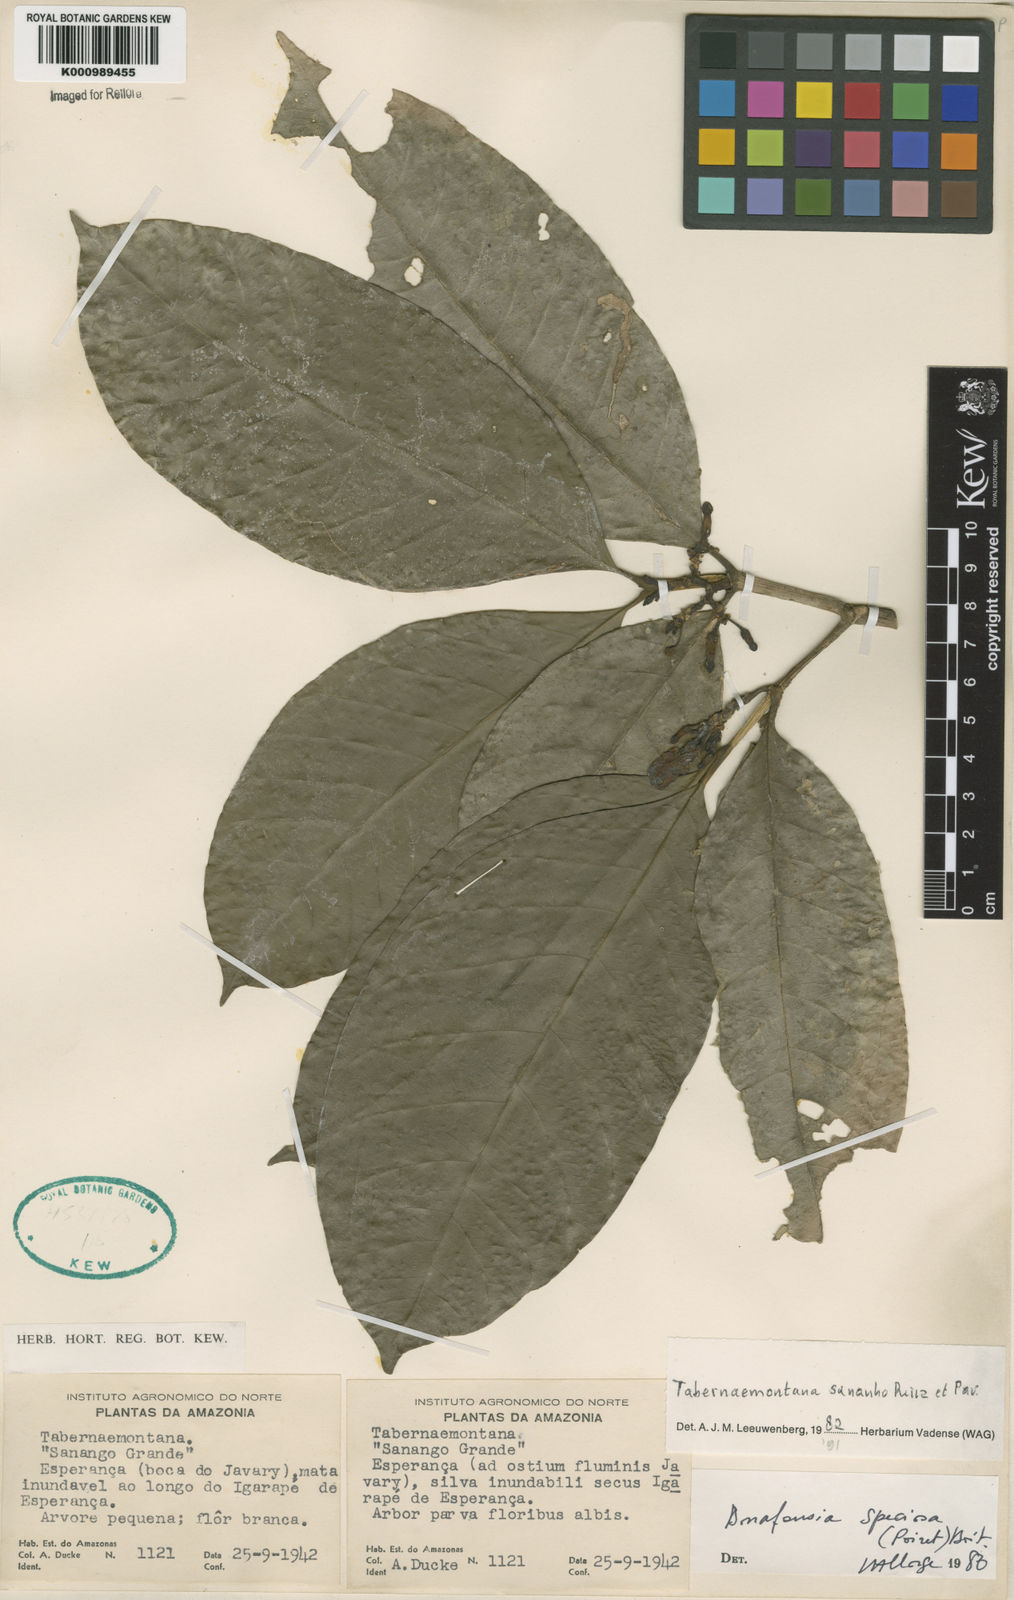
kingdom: Plantae
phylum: Tracheophyta
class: Magnoliopsida
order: Gentianales
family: Apocynaceae
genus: Tabernaemontana
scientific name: Tabernaemontana sananho
